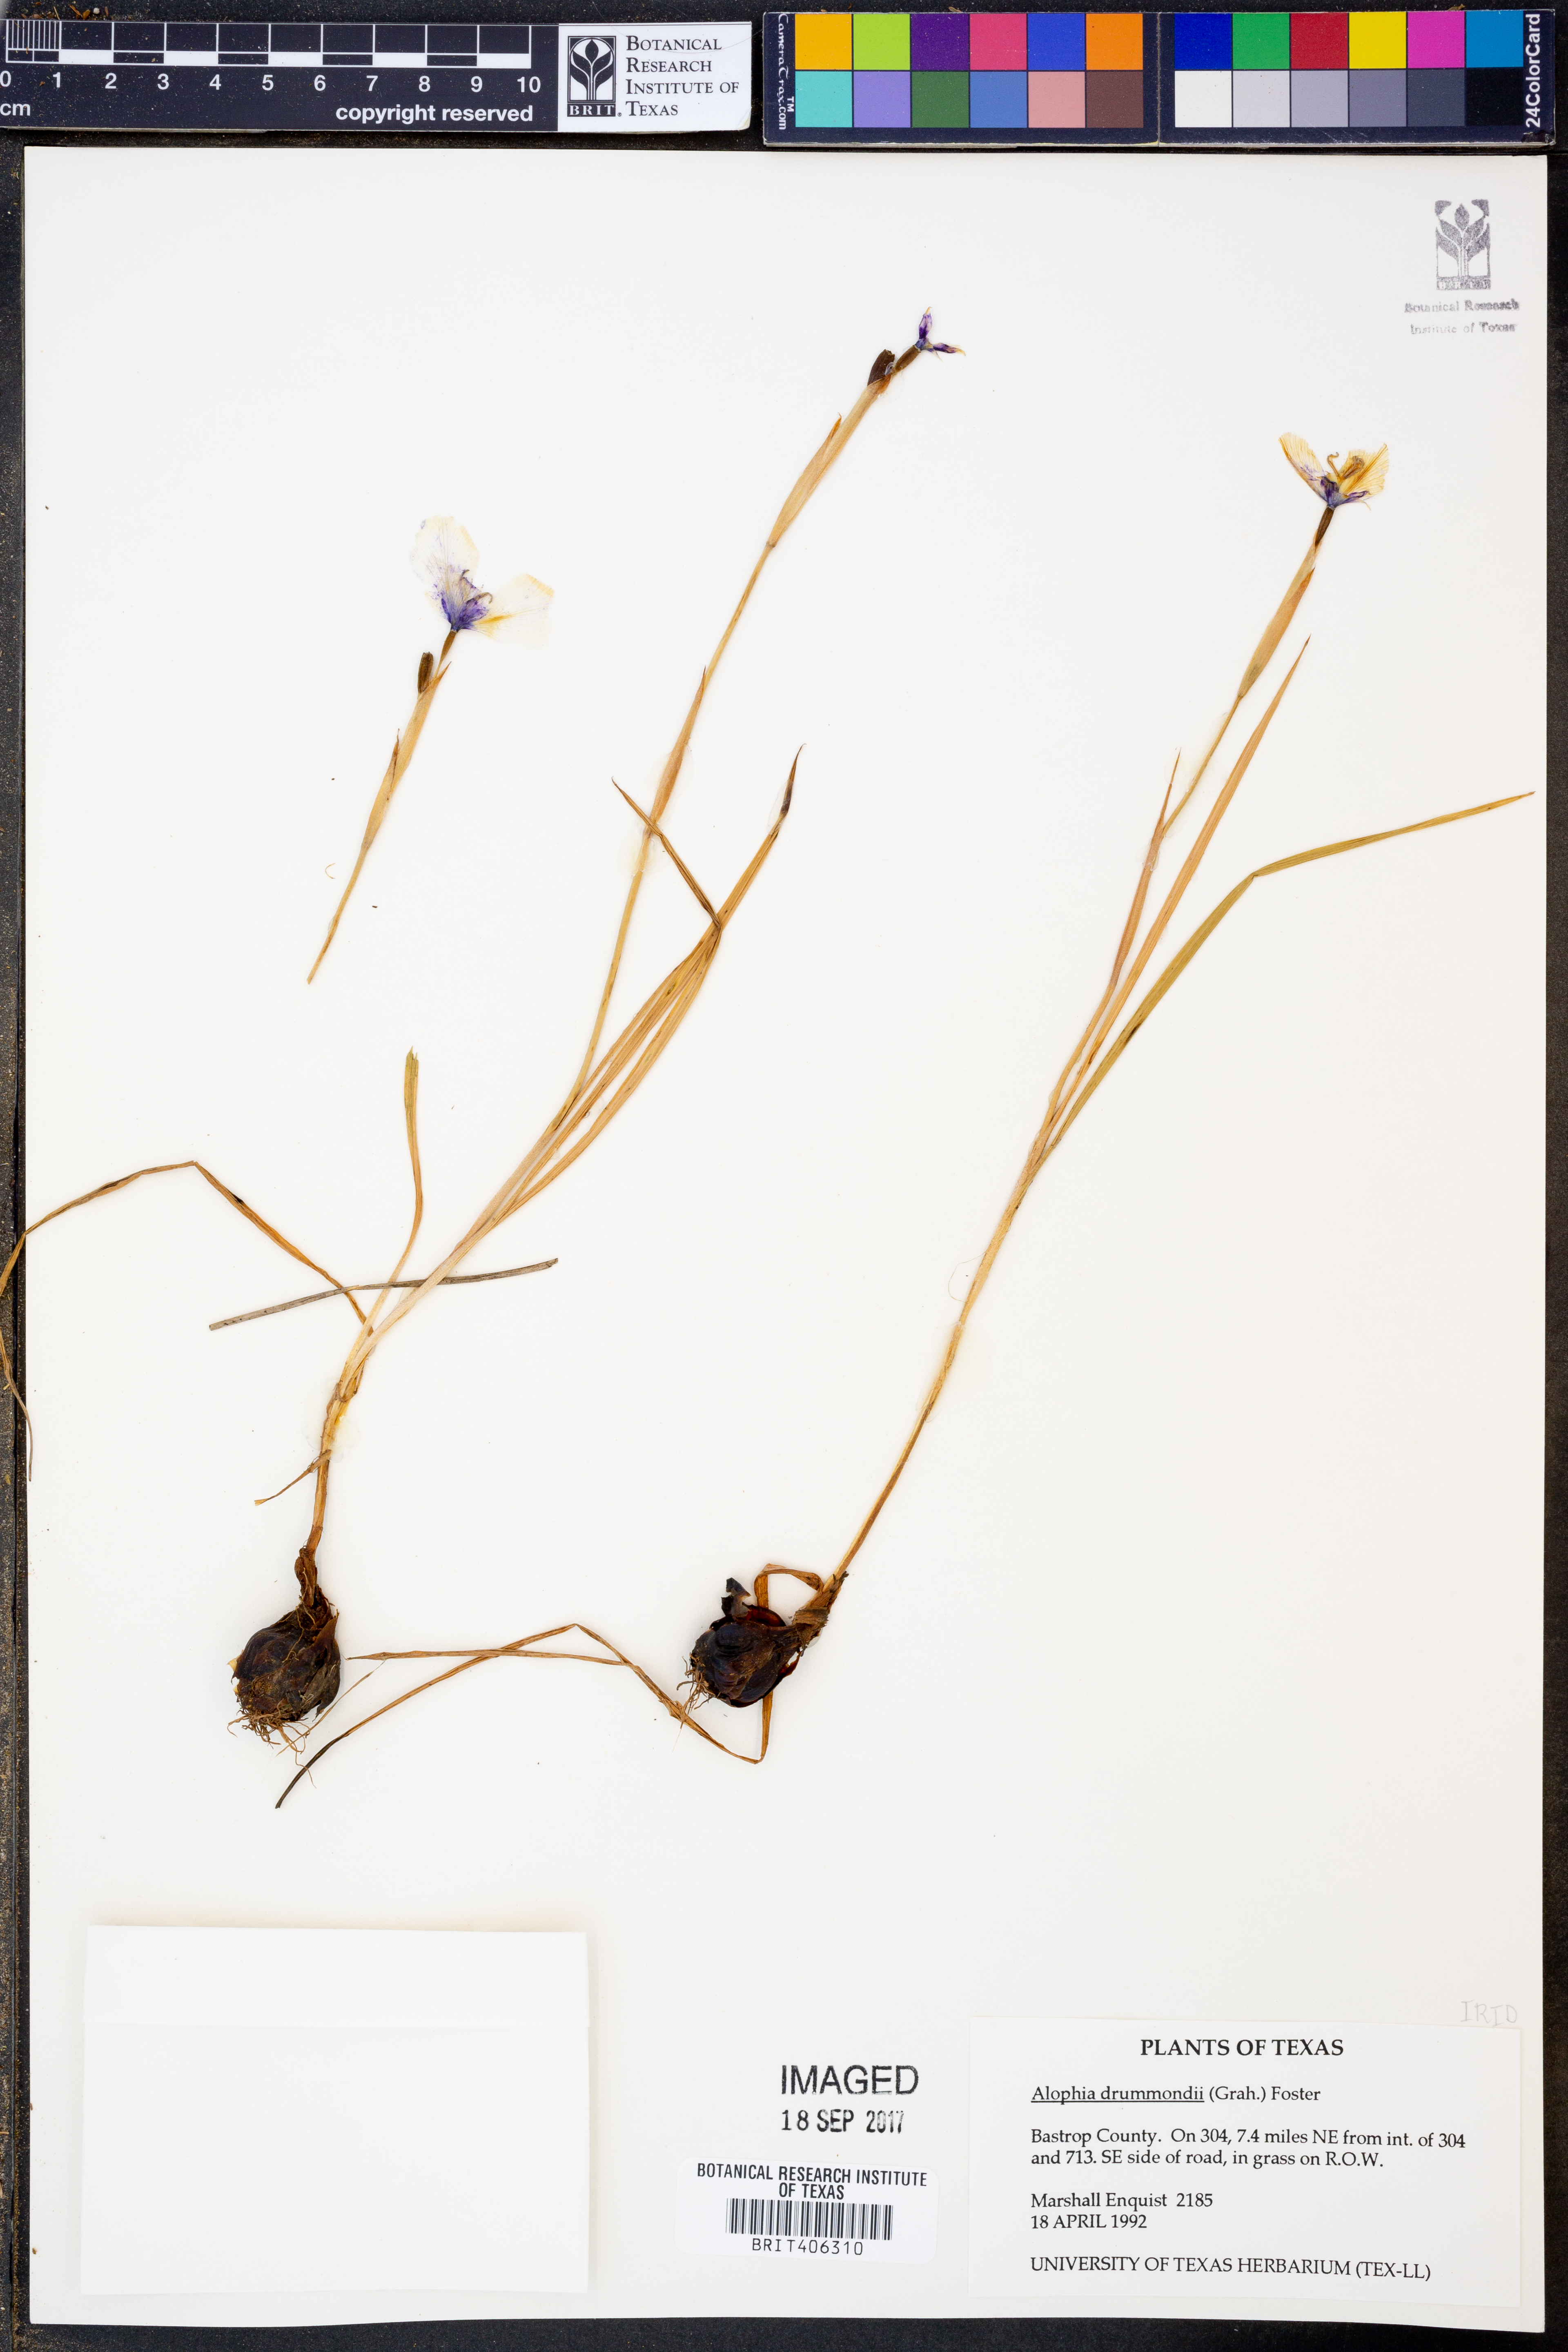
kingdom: Plantae
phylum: Tracheophyta
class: Liliopsida
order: Asparagales
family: Iridaceae
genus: Alophia
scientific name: Alophia drummondii
